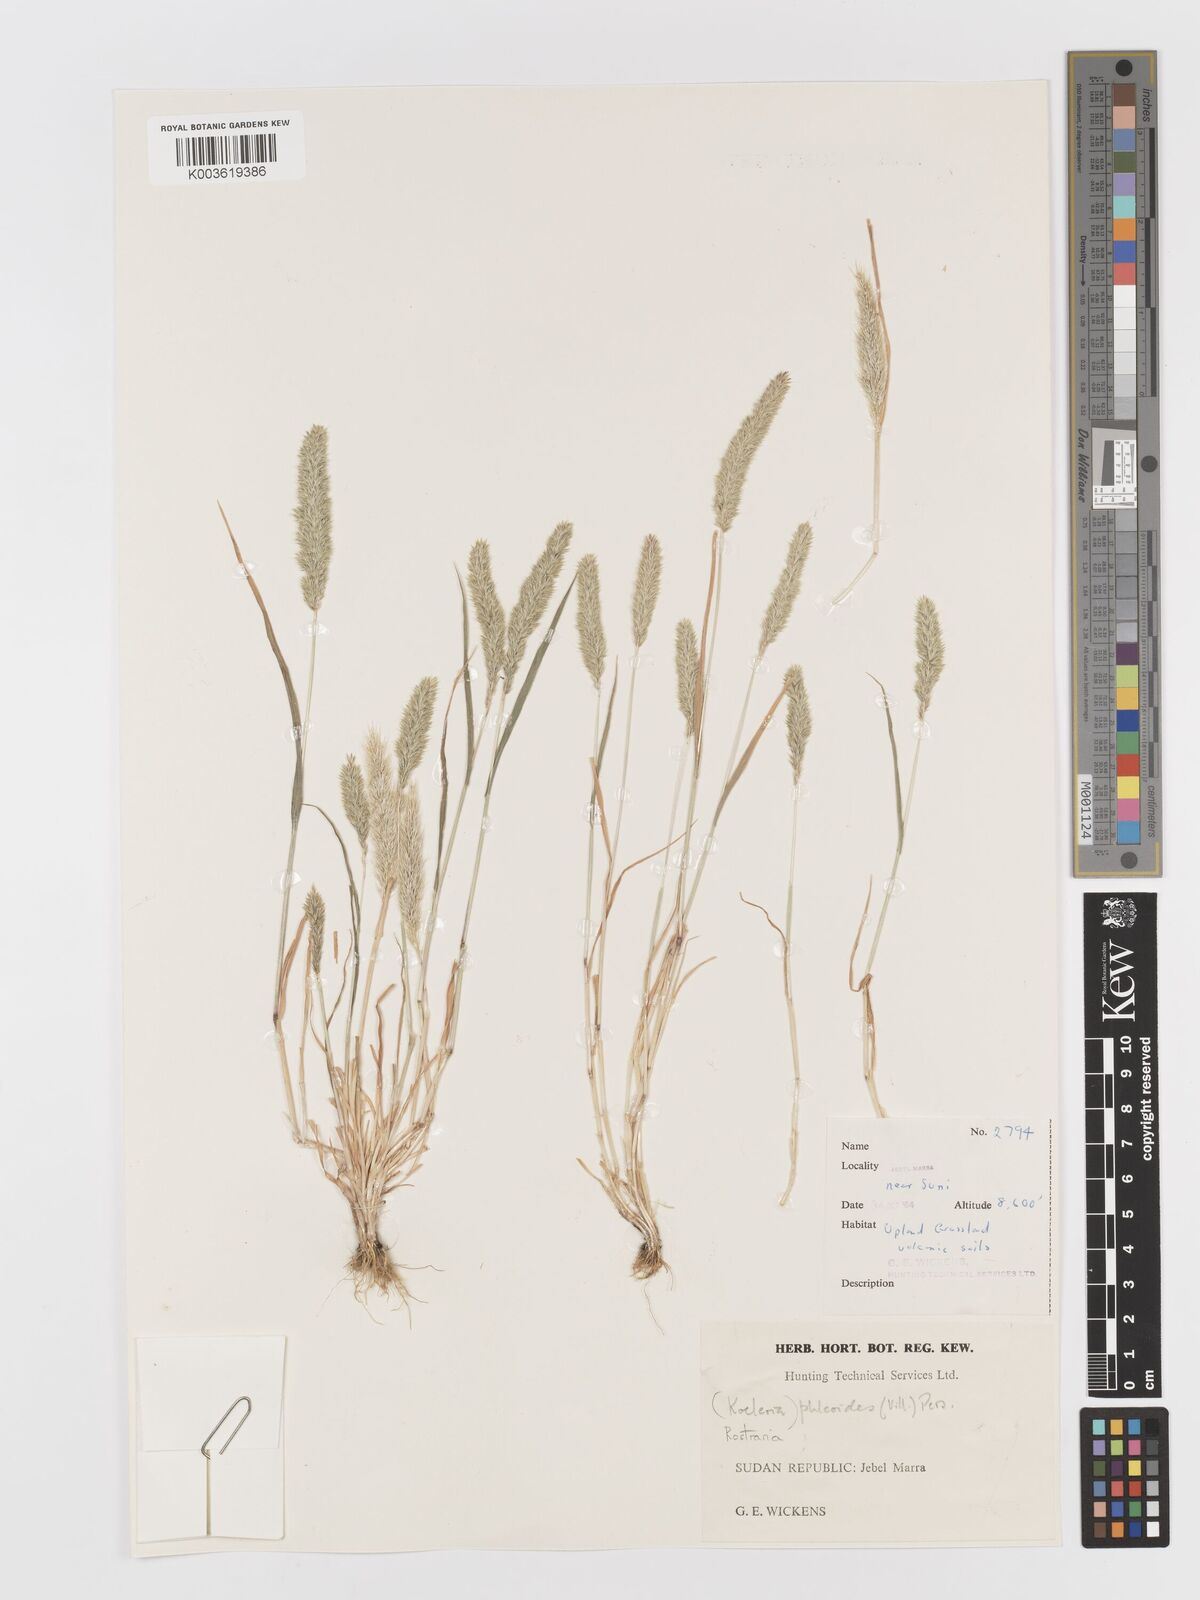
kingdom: Plantae
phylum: Tracheophyta
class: Liliopsida
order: Poales
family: Poaceae
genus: Rostraria
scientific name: Rostraria cristata
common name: Mediterranean hair-grass
